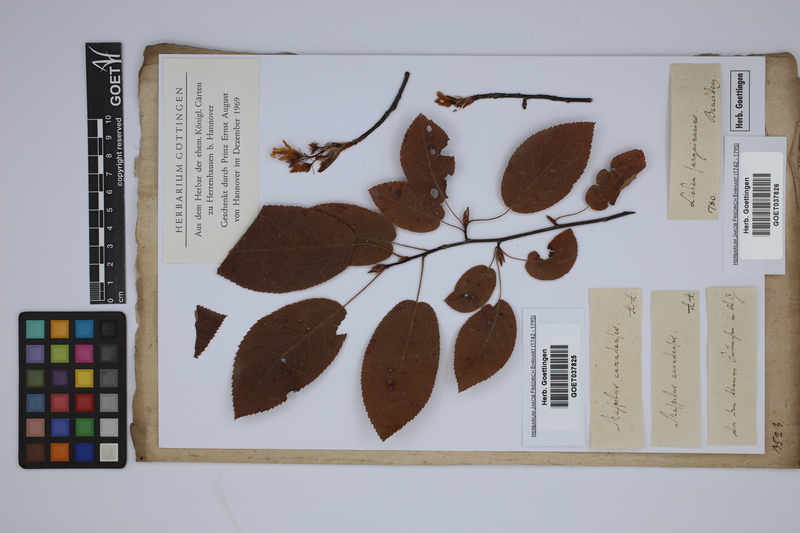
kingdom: Plantae
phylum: Tracheophyta
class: Magnoliopsida
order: Rosales
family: Rosaceae
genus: Amelanchier
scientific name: Amelanchier
